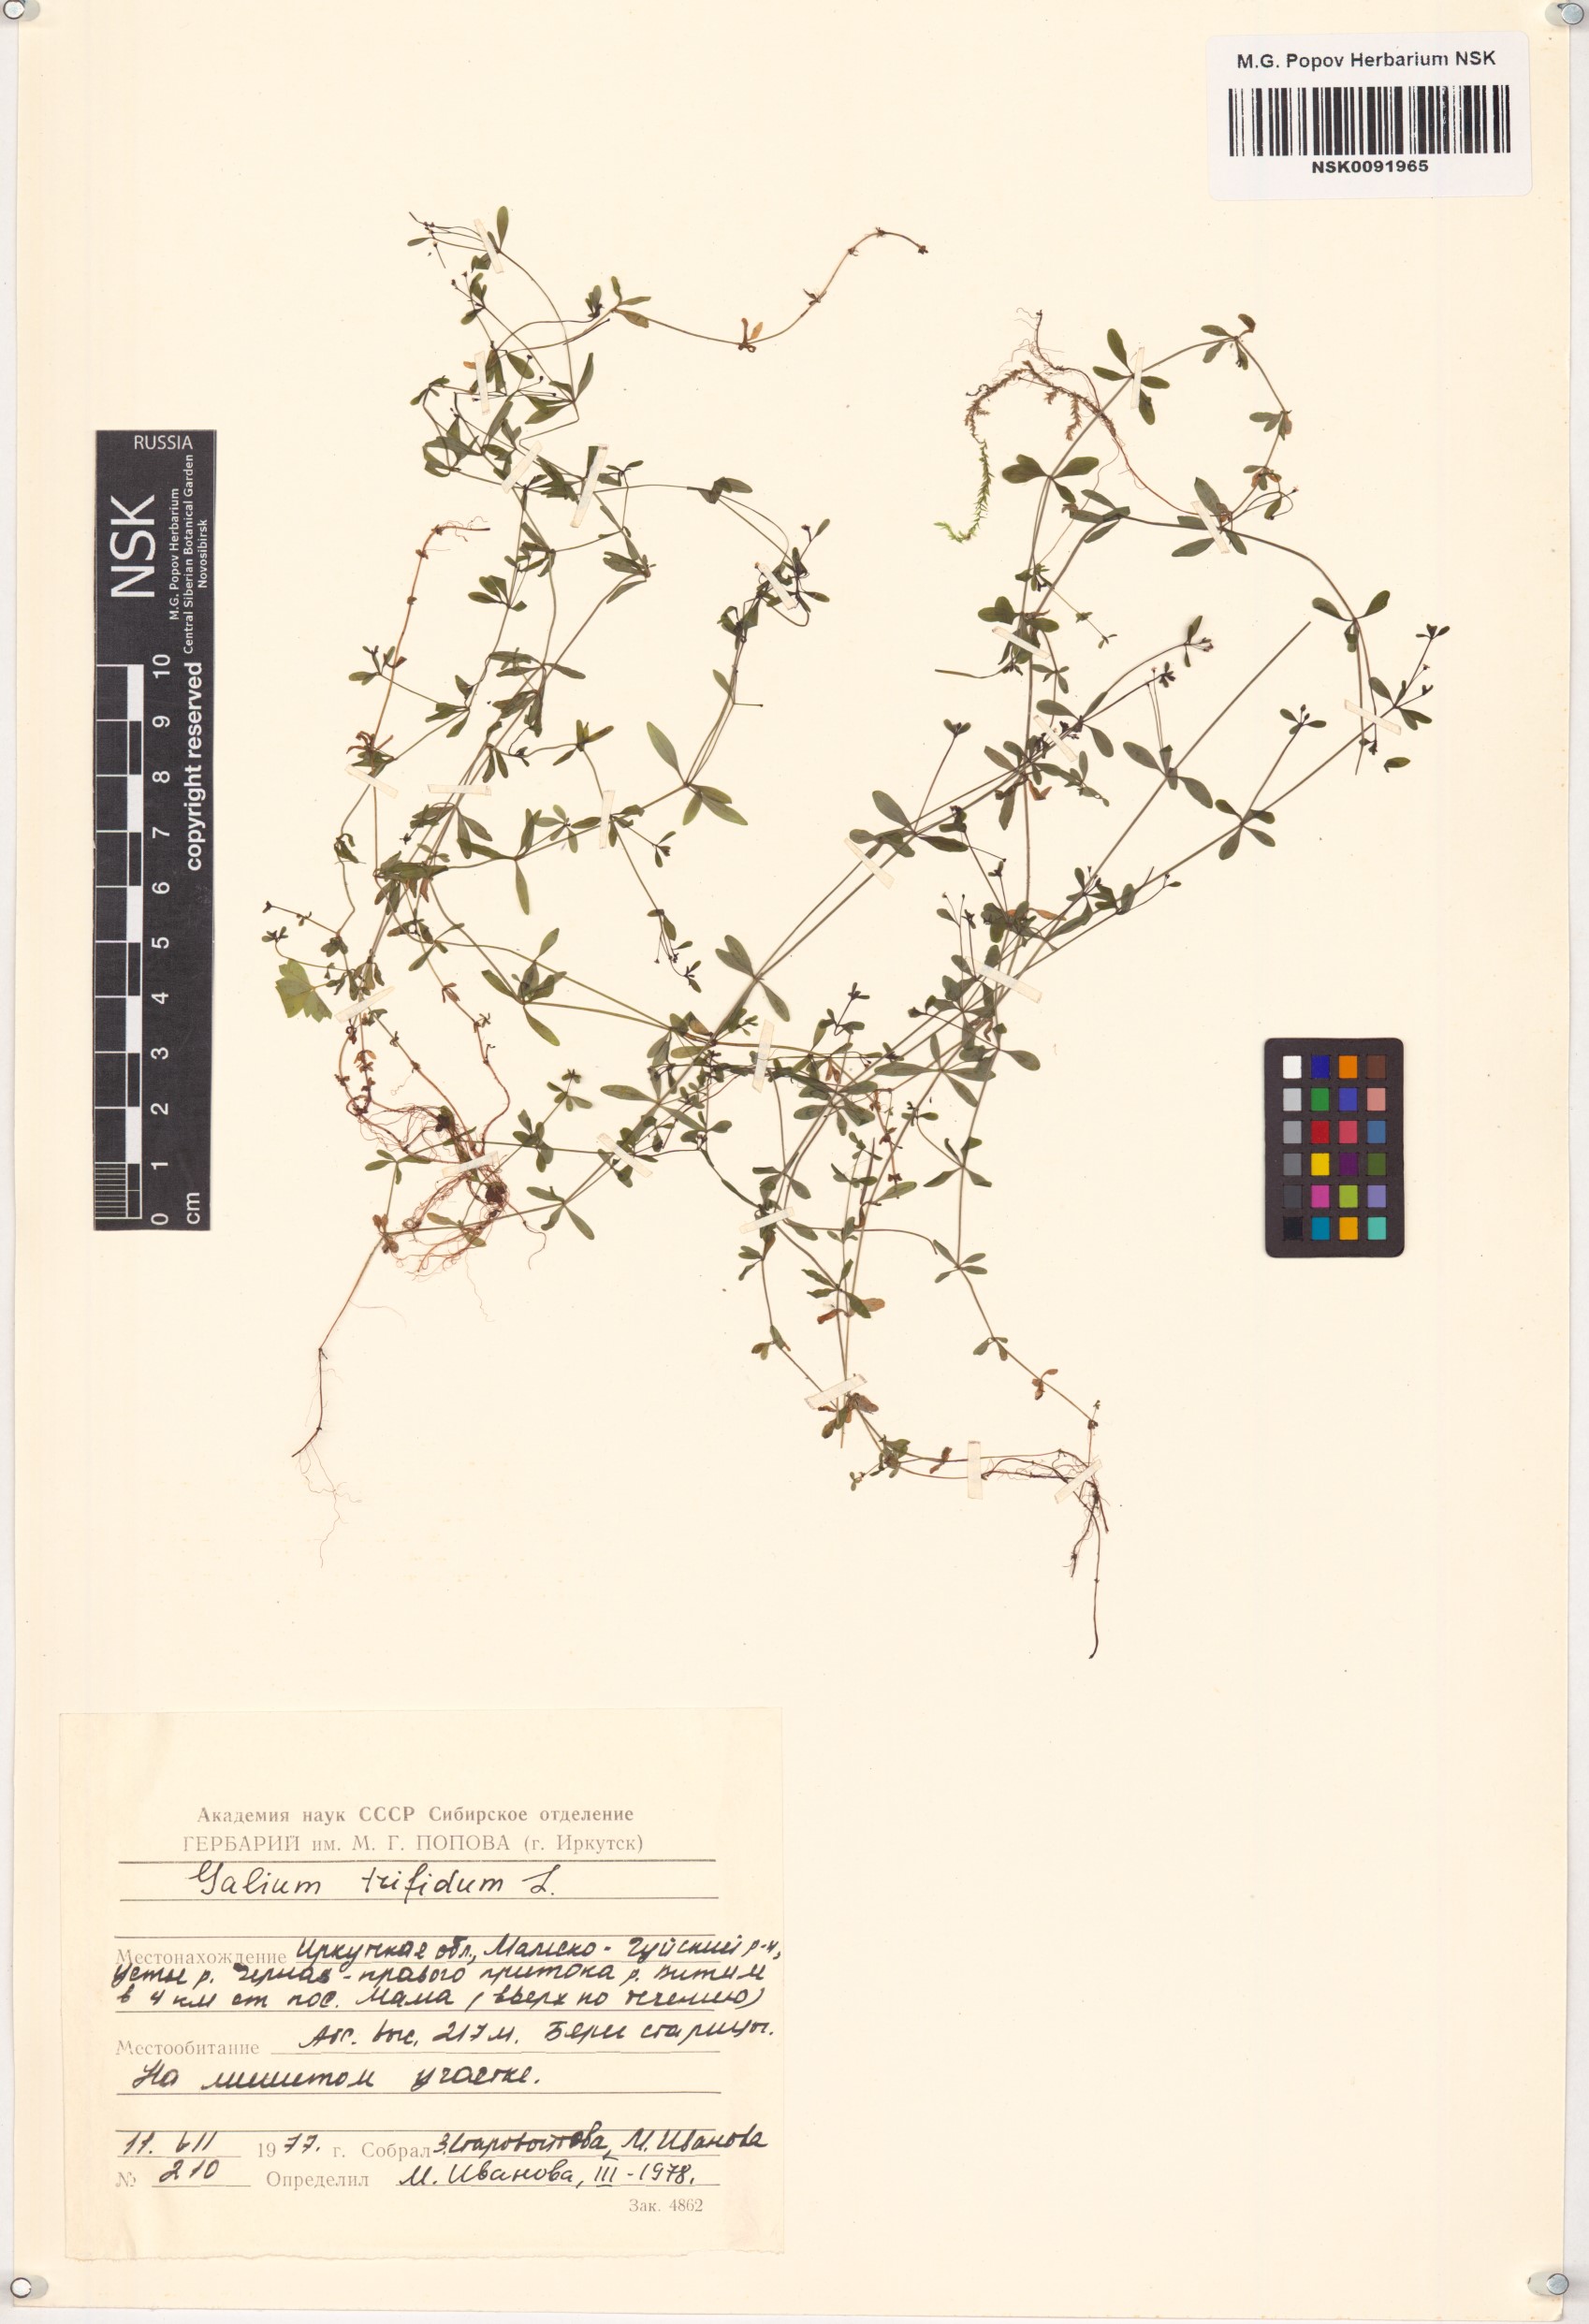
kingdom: Plantae
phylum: Tracheophyta
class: Magnoliopsida
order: Gentianales
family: Rubiaceae
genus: Galium
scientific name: Galium trifidum
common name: Small bedstraw
